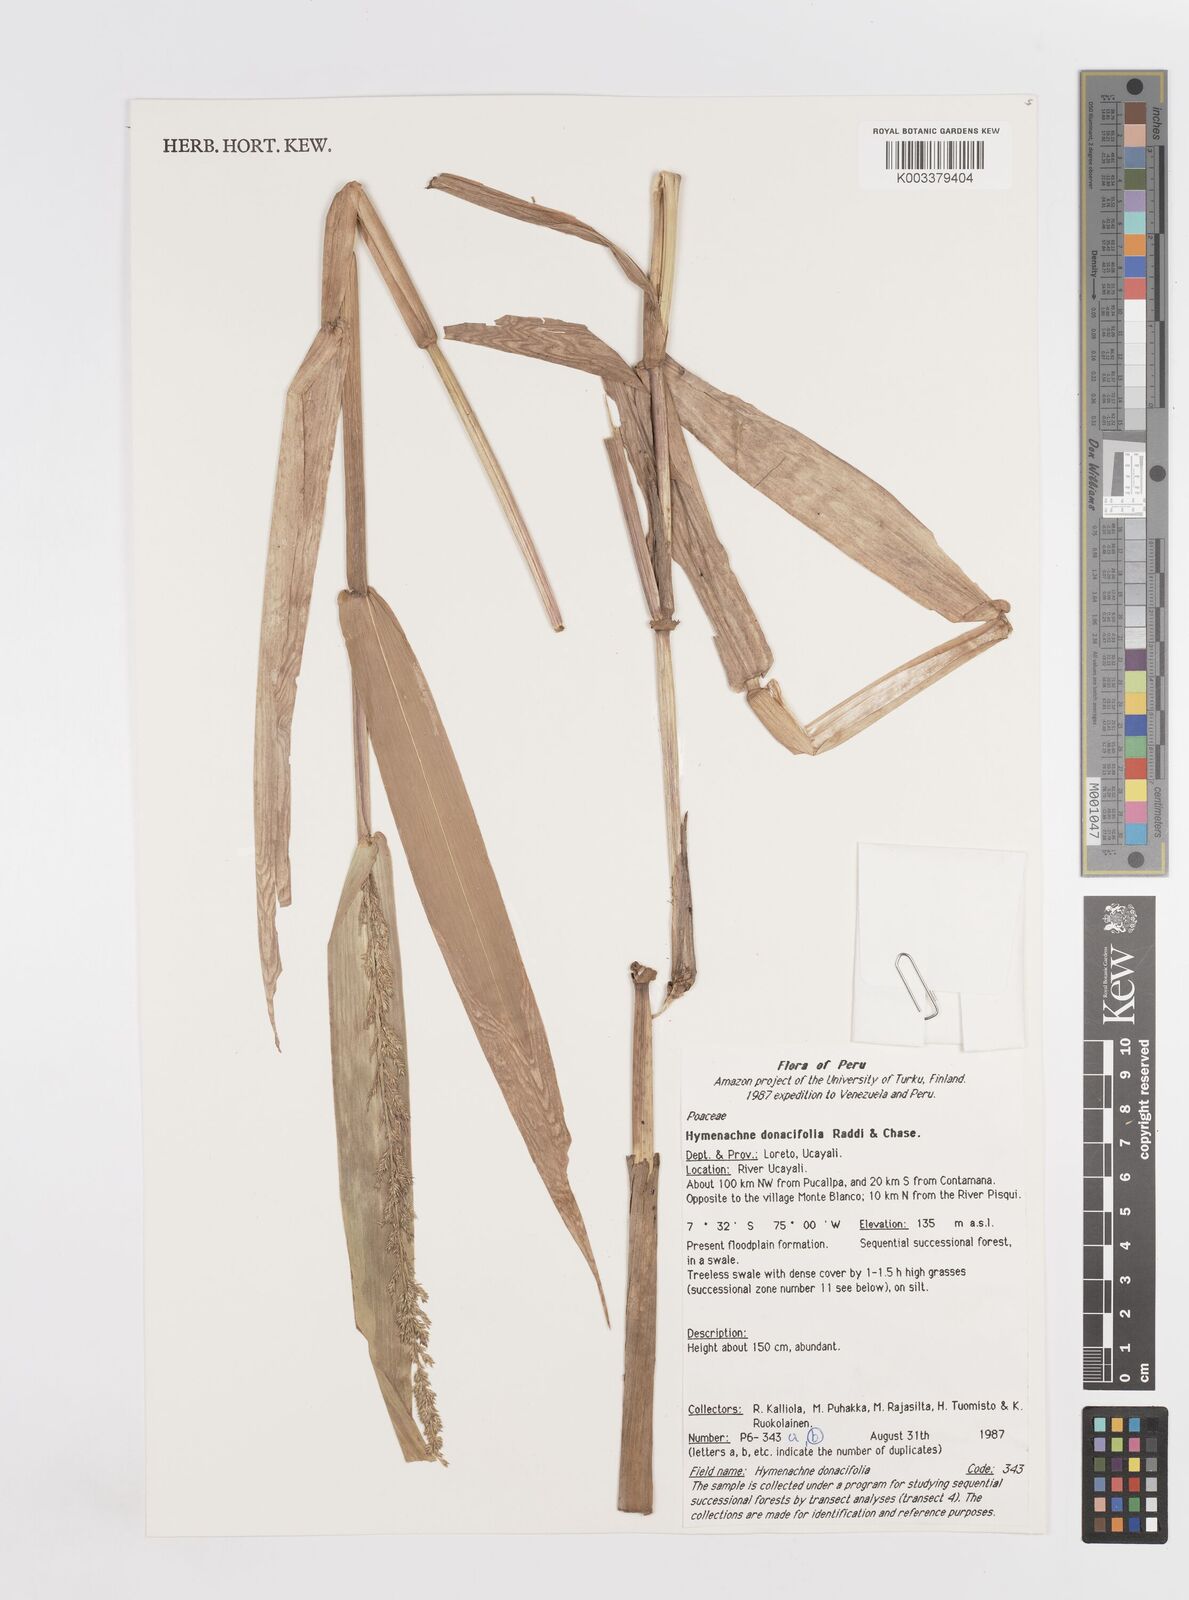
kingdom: Plantae
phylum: Tracheophyta
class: Liliopsida
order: Poales
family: Poaceae
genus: Hymenachne
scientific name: Hymenachne donacifolia
